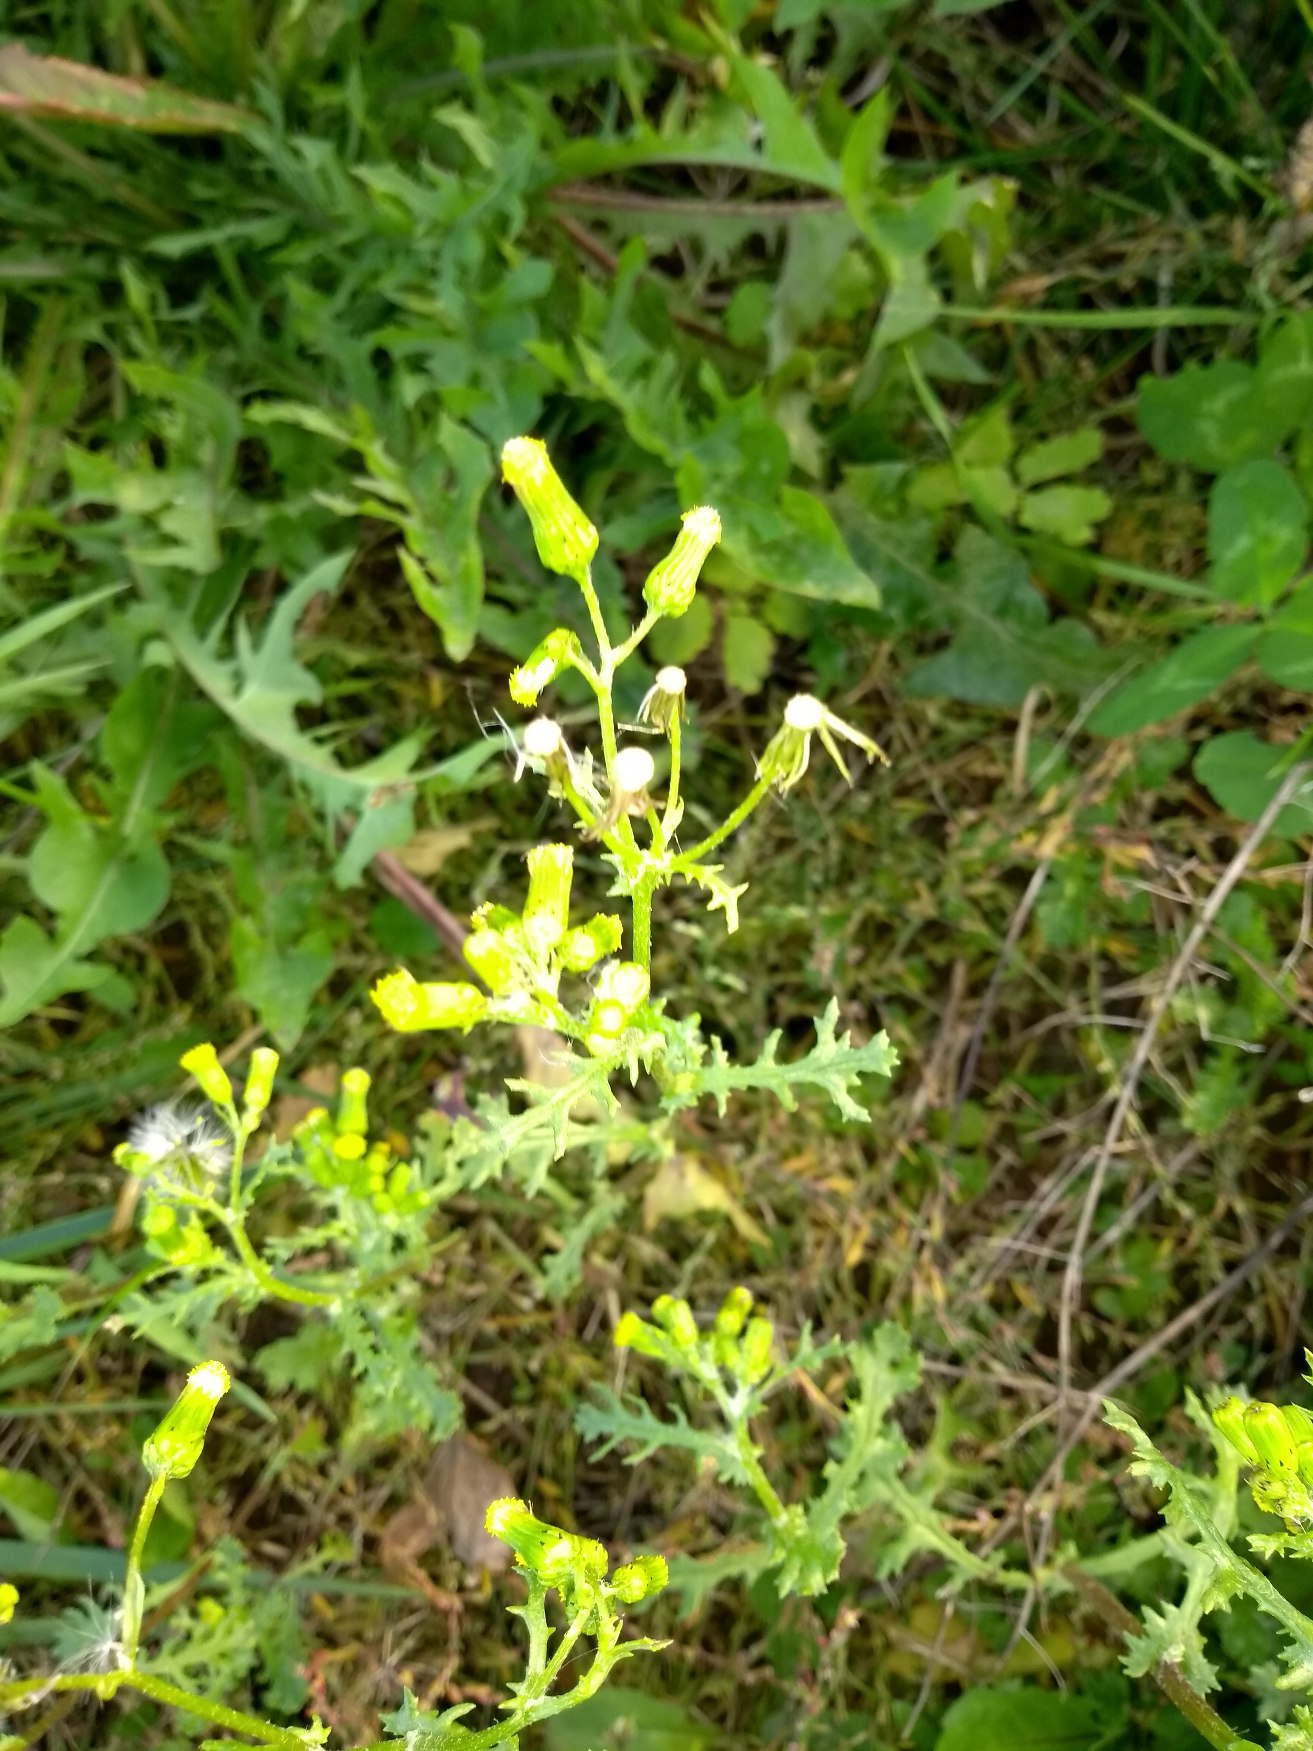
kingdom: Plantae
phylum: Tracheophyta
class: Magnoliopsida
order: Asterales
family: Asteraceae
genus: Senecio
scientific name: Senecio vulgaris
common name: Almindelig brandbæger
